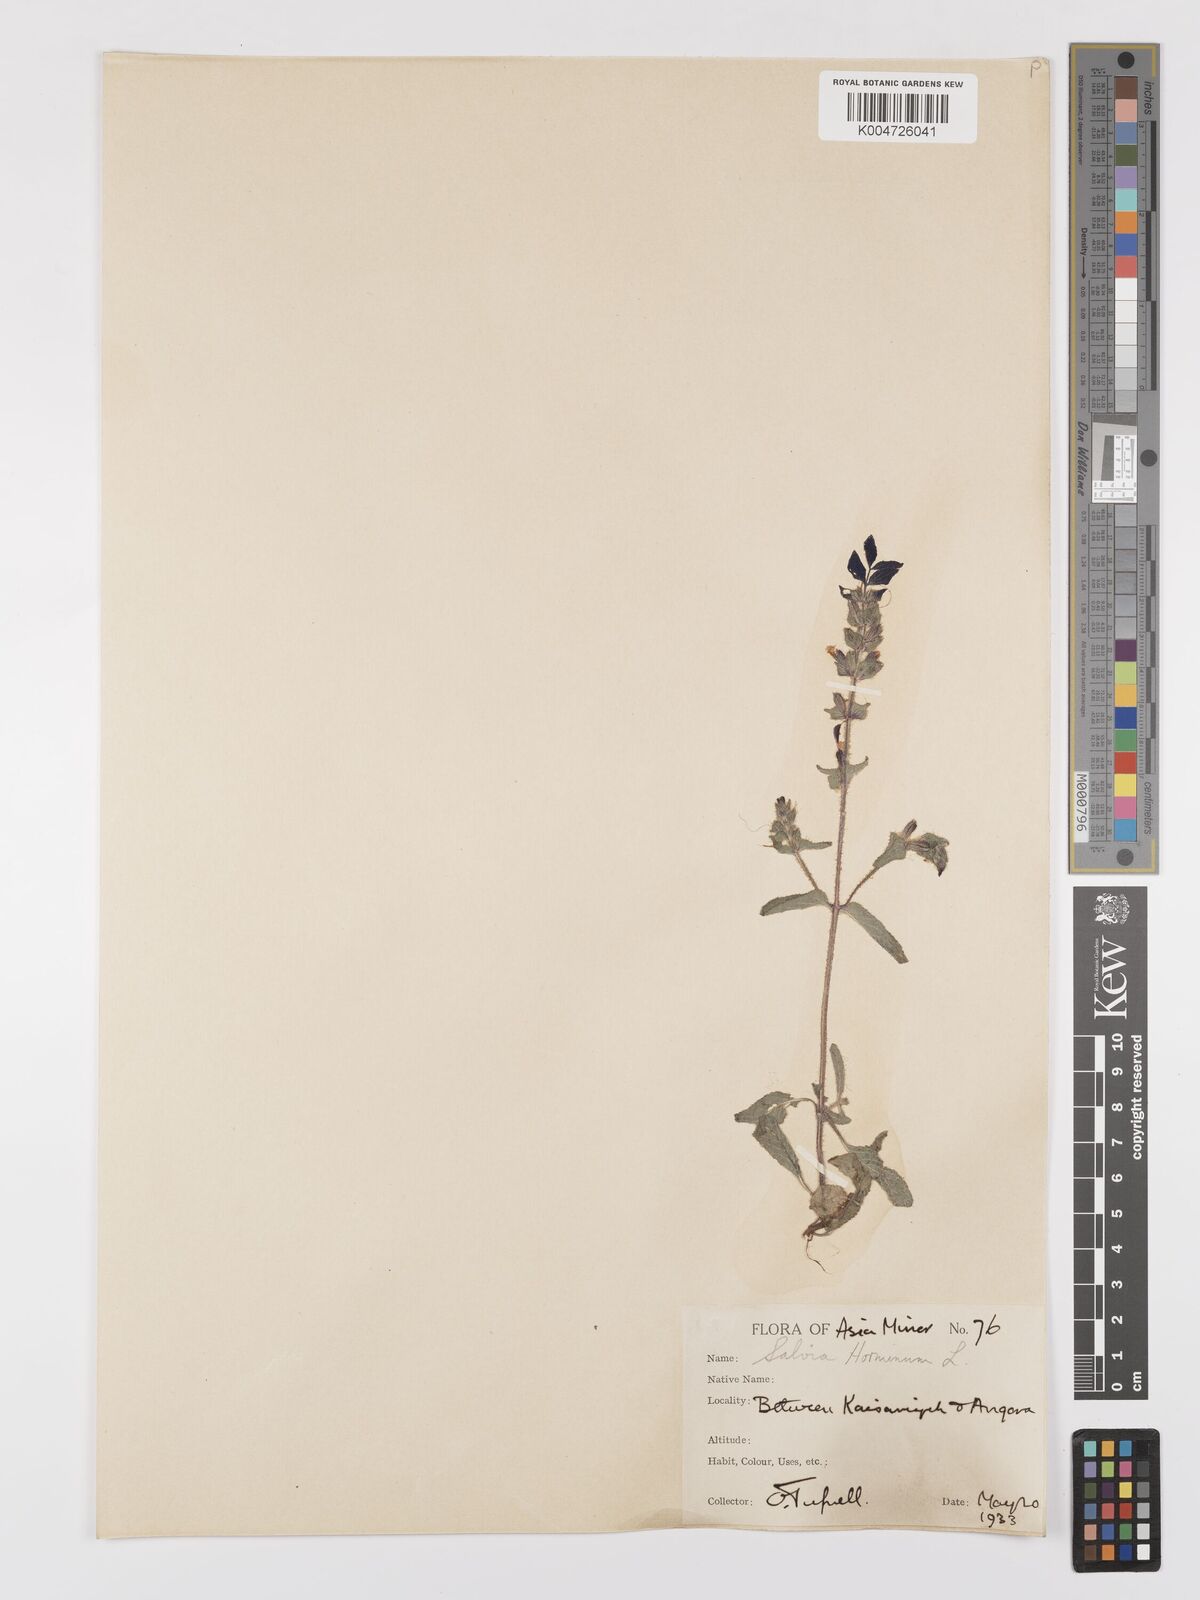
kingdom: Plantae
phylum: Tracheophyta
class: Magnoliopsida
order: Lamiales
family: Lamiaceae
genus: Salvia
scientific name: Salvia viridis
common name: Annual clary
